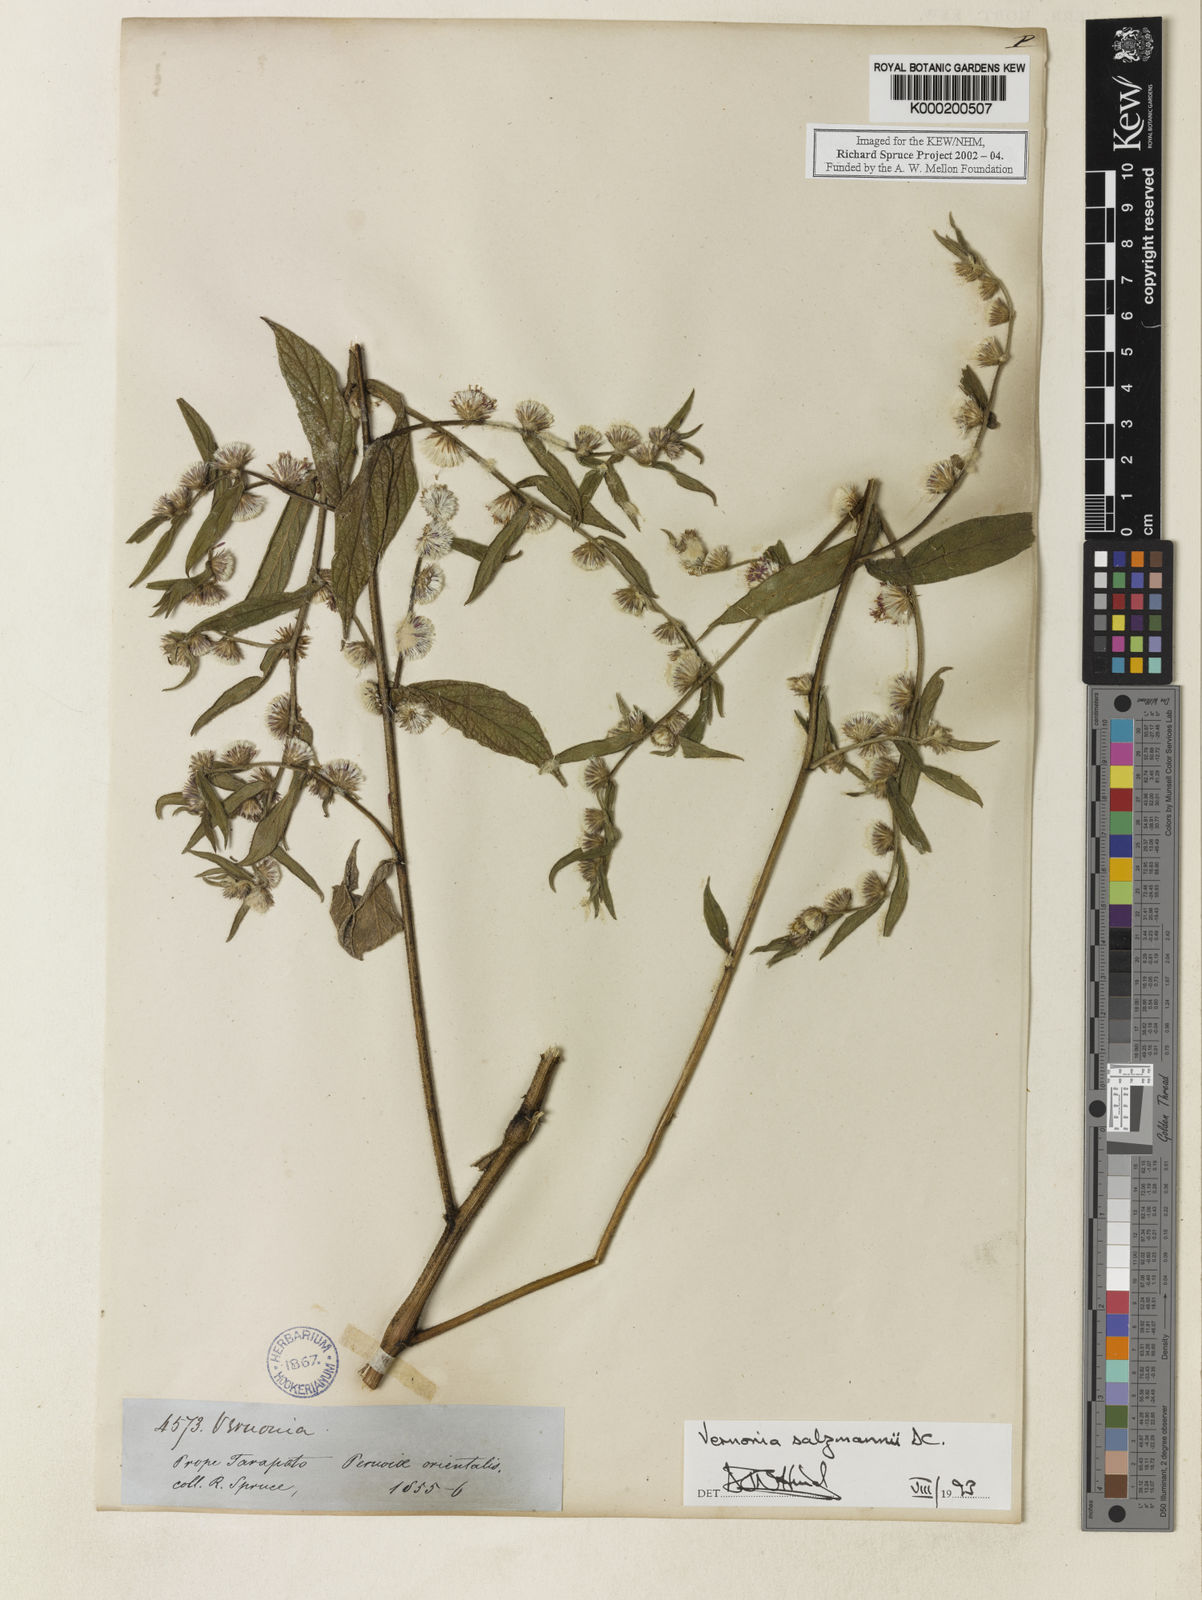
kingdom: Plantae
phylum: Tracheophyta
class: Magnoliopsida
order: Asterales
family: Asteraceae
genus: Lepidaploa
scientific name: Lepidaploa salzmannii
